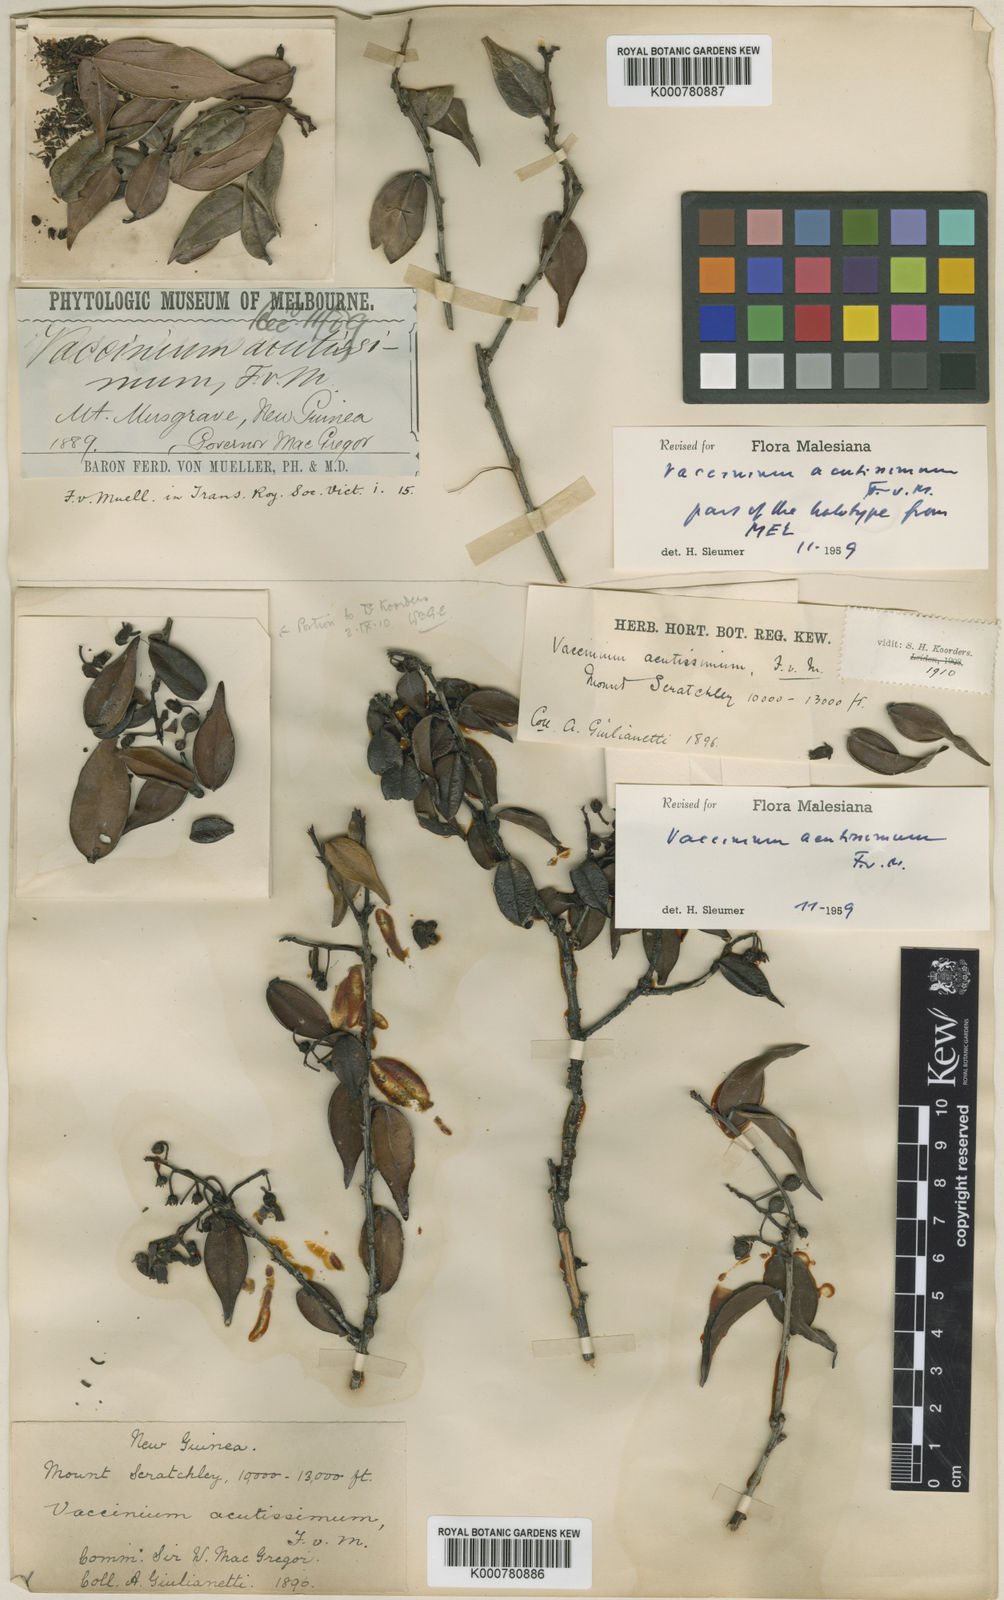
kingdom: Plantae
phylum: Tracheophyta
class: Magnoliopsida
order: Ericales
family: Ericaceae
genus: Vaccinium
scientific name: Vaccinium acutissimum
